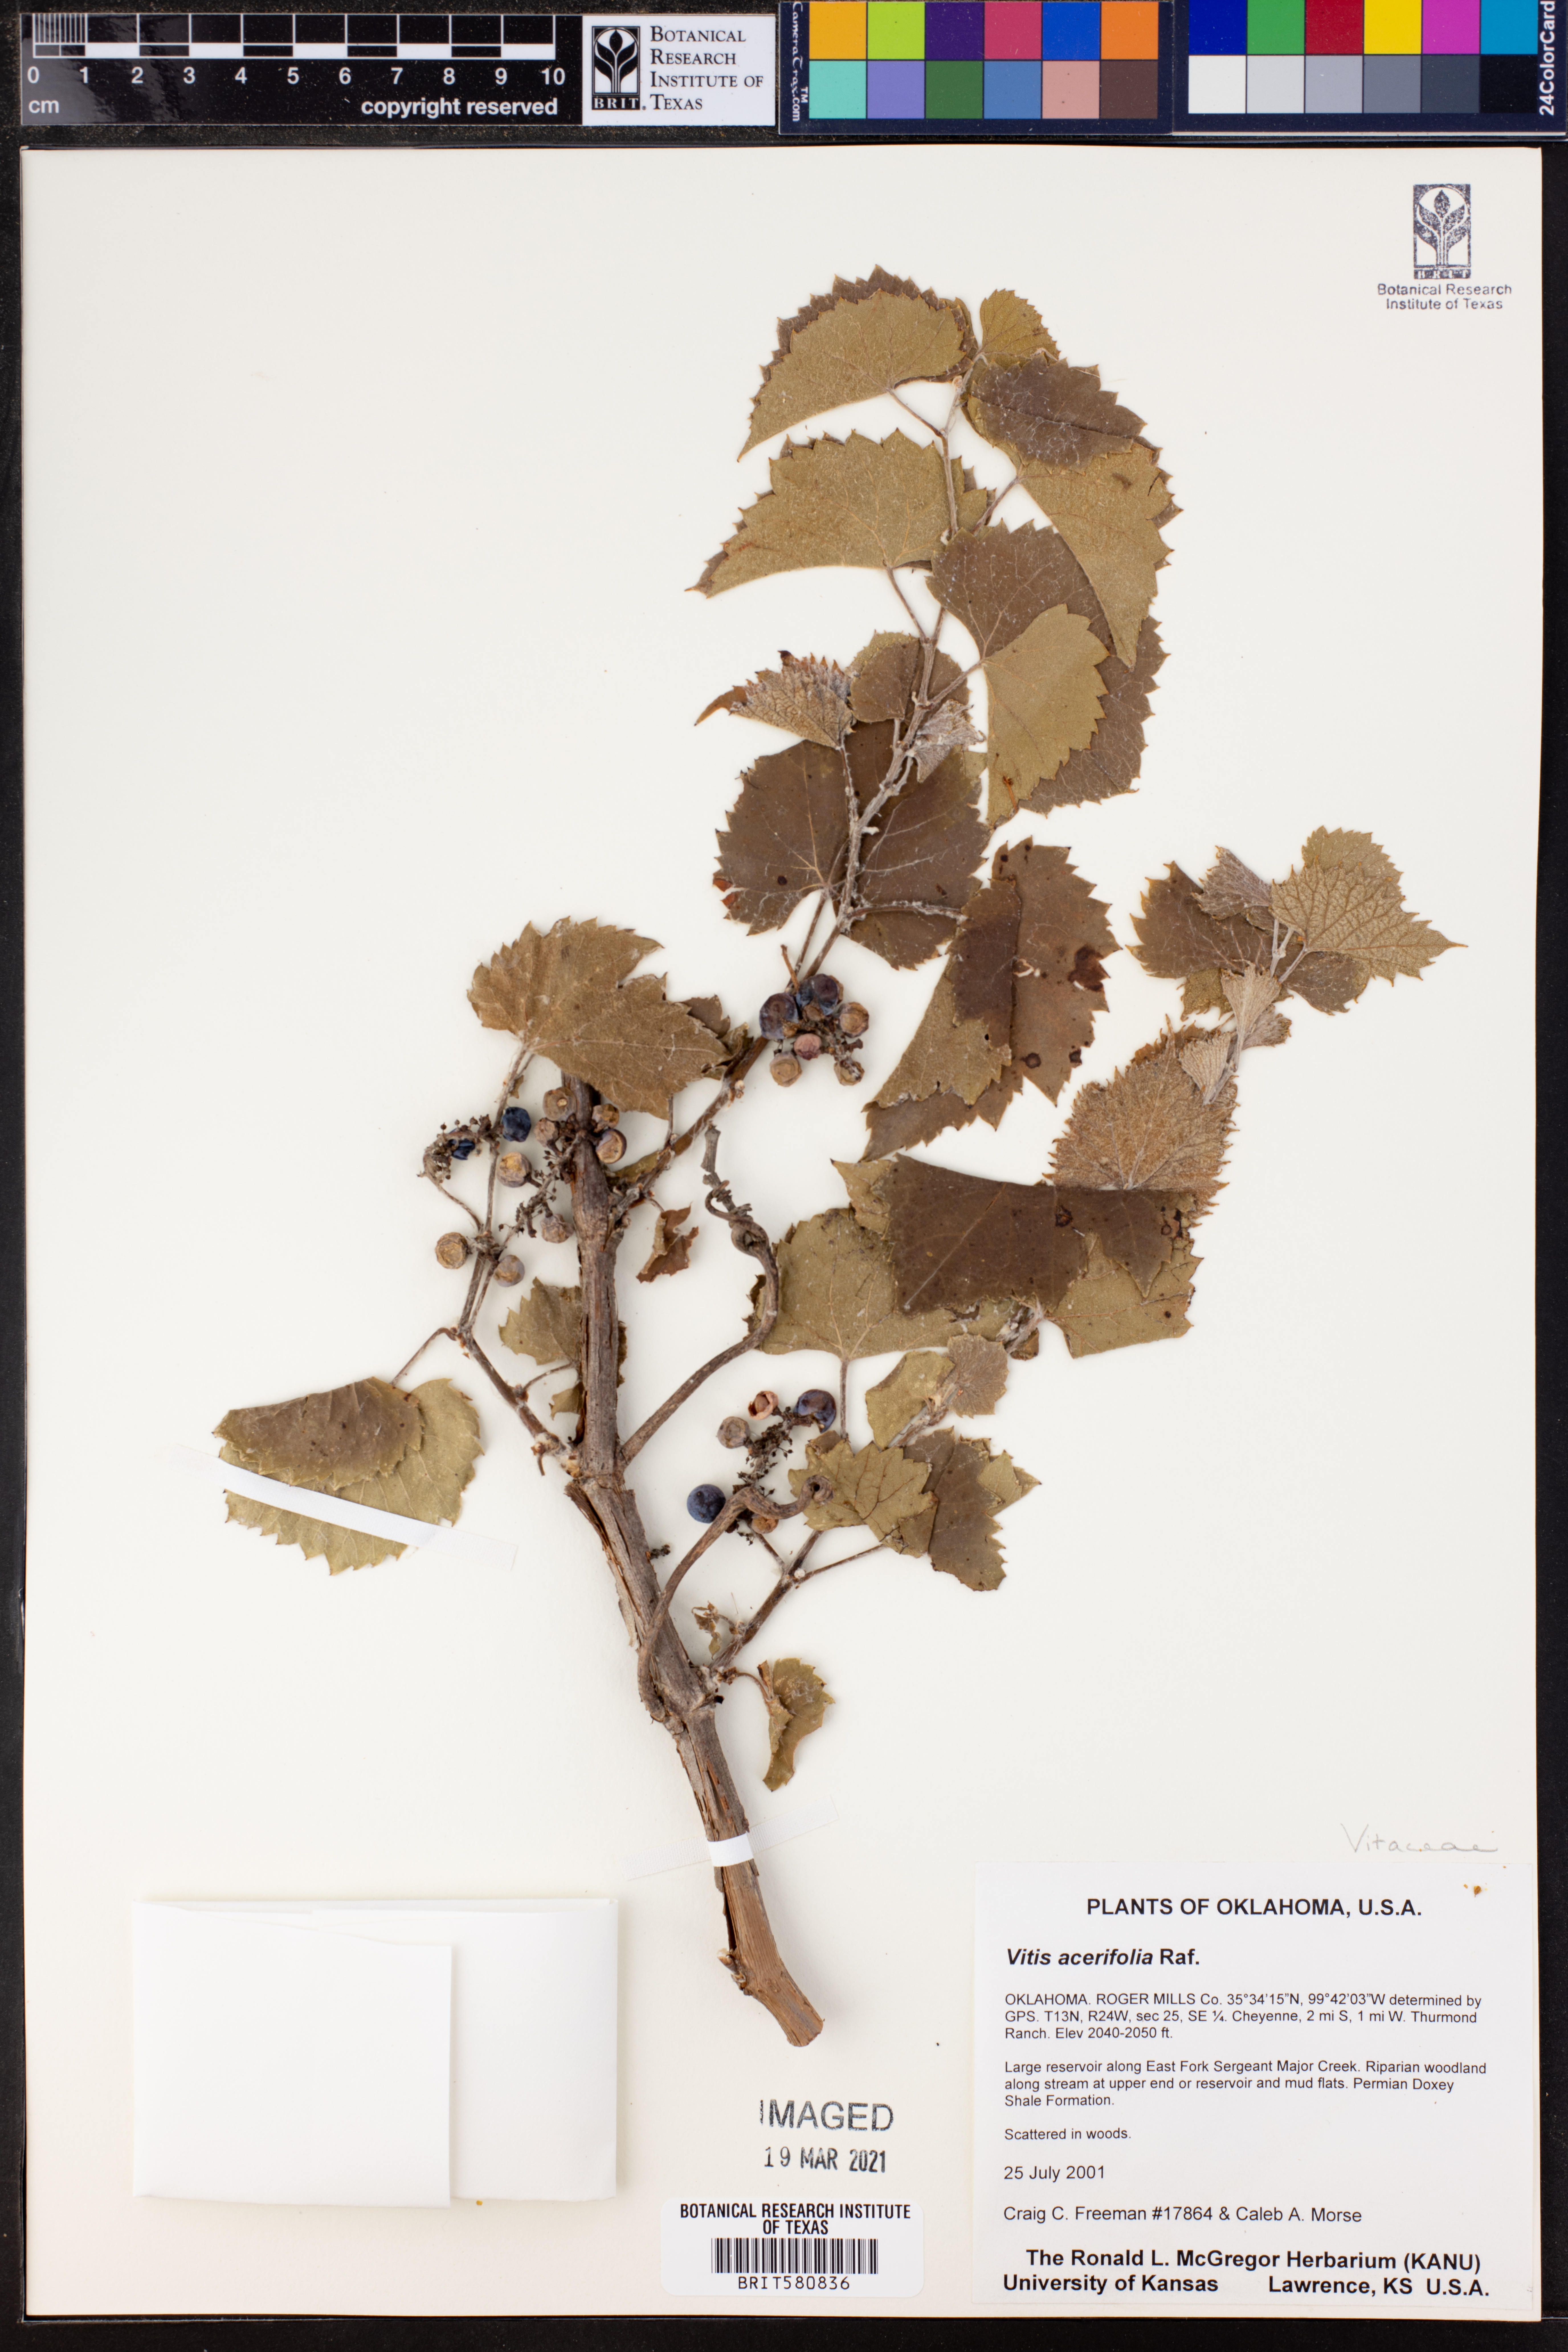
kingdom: Plantae
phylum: Tracheophyta
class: Magnoliopsida
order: Vitales
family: Vitaceae
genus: Vitis
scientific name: Vitis acerifolia
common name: Bush grape
